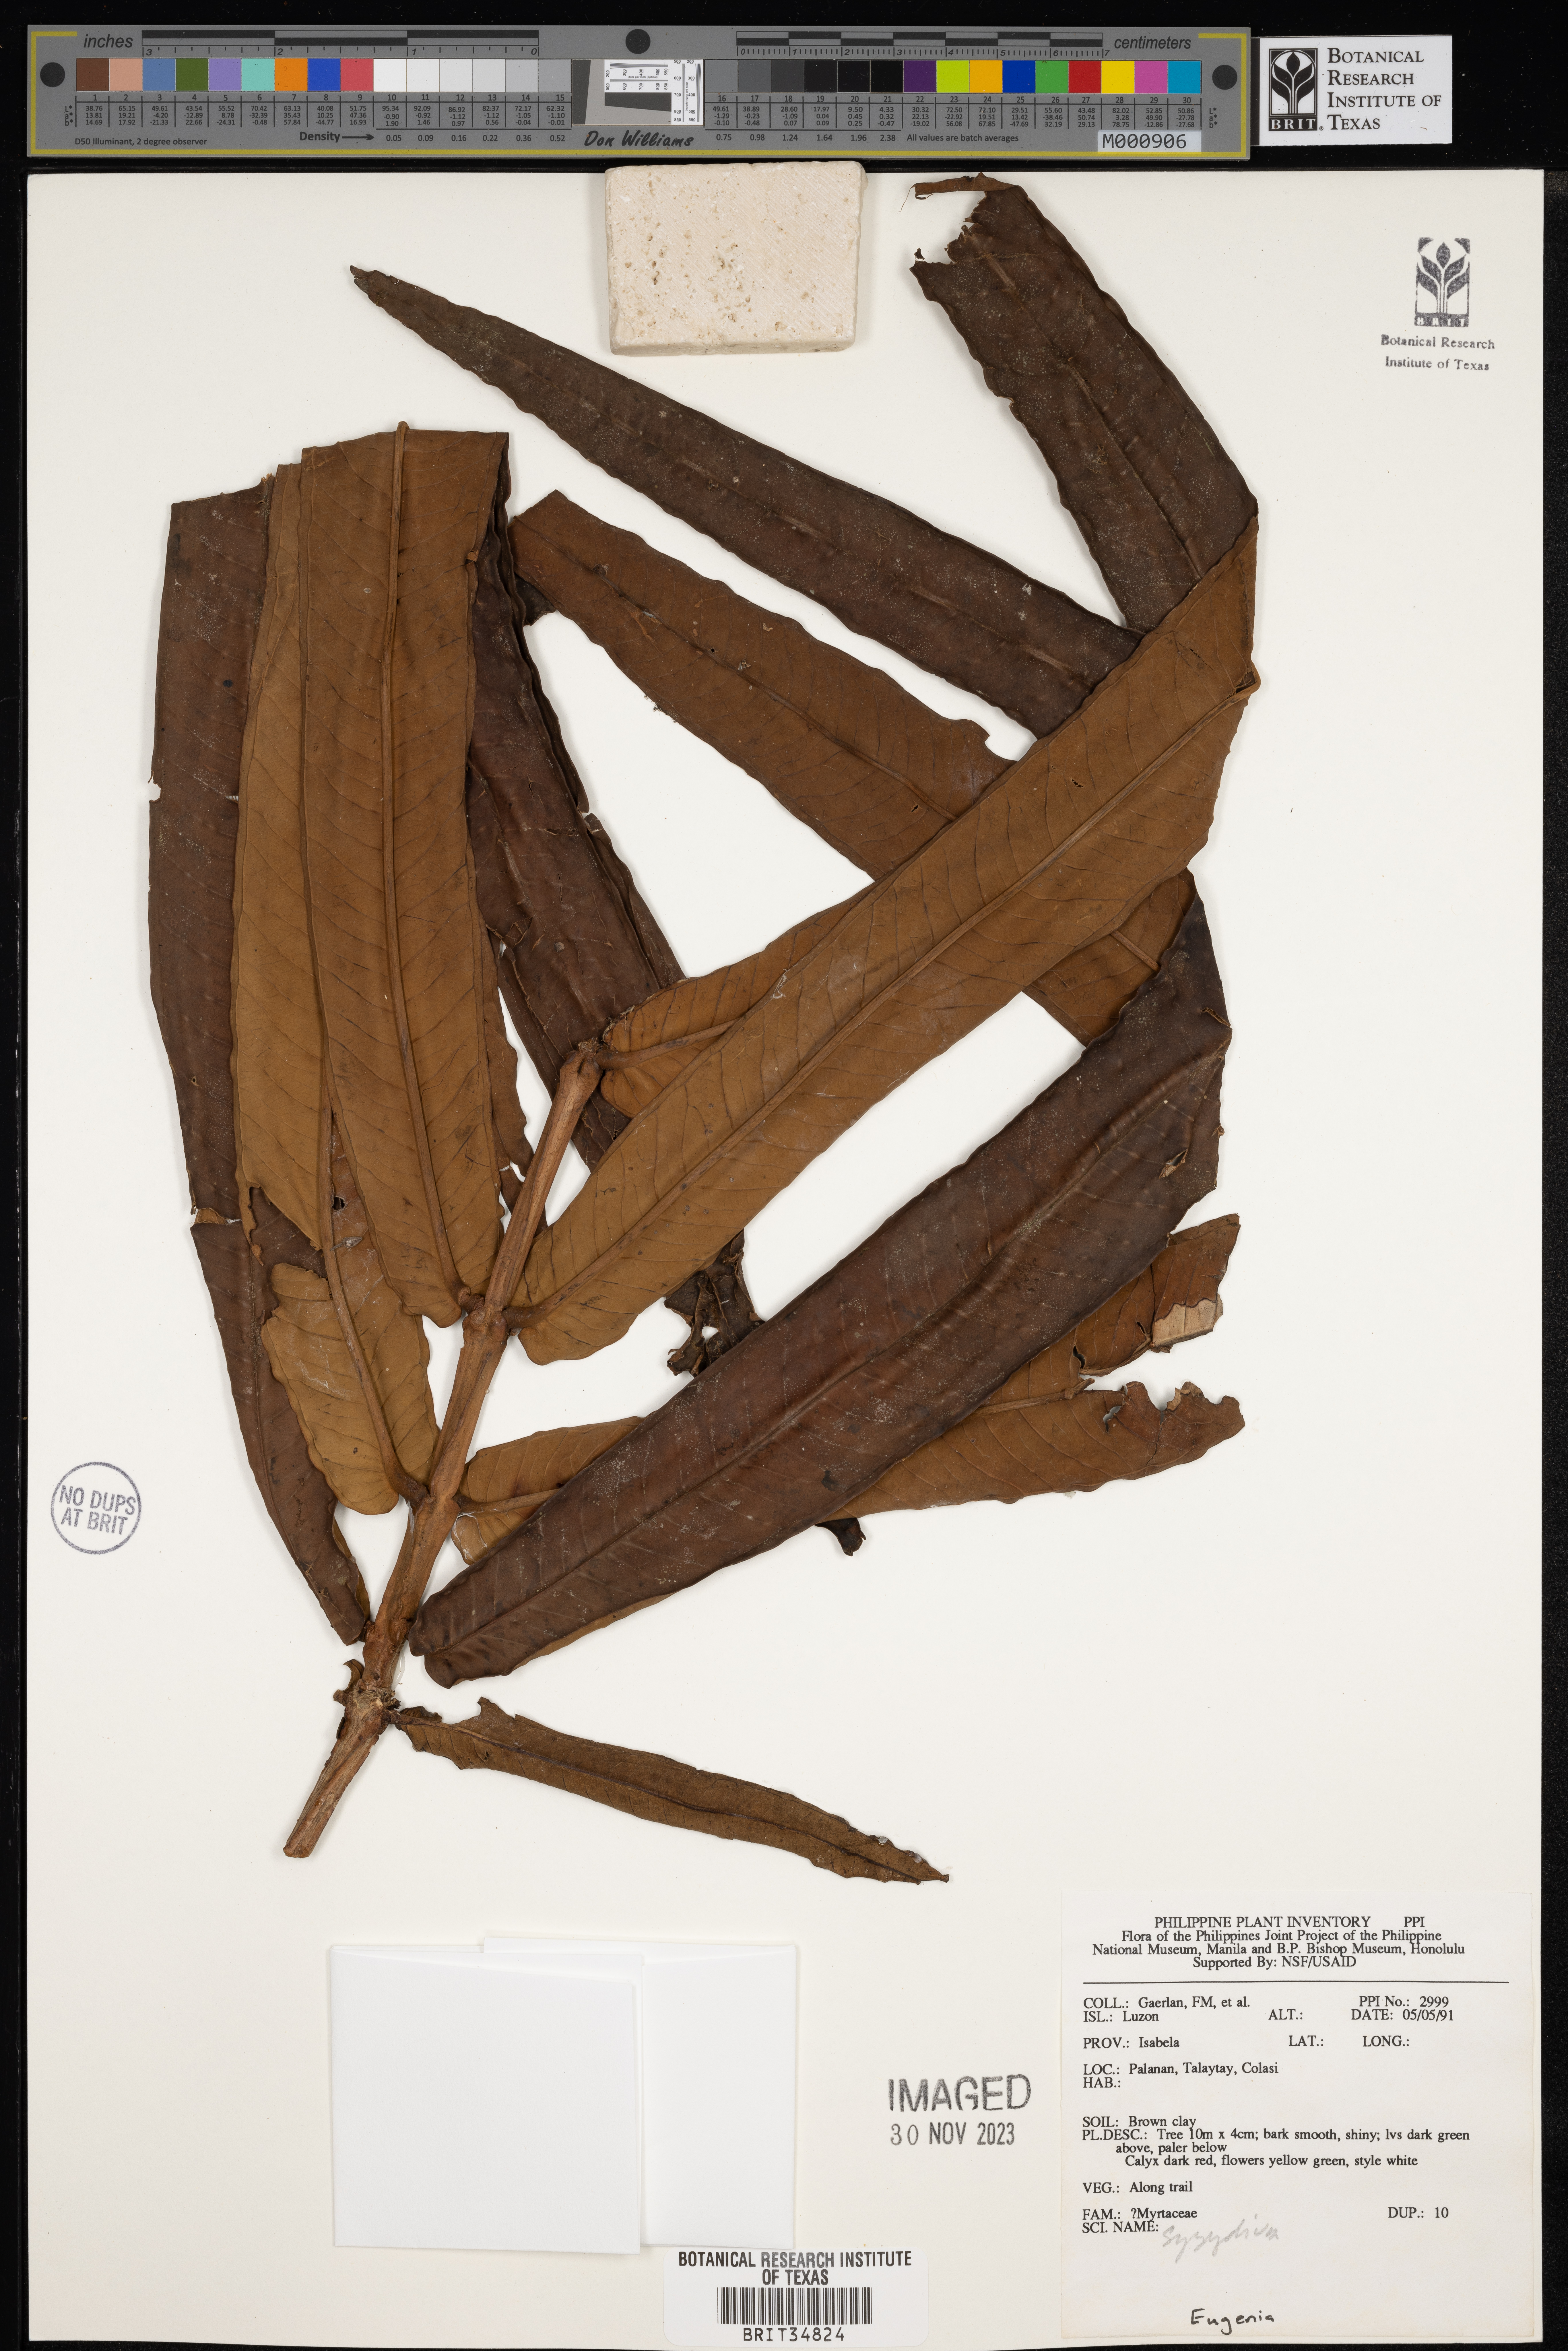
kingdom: Plantae
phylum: Tracheophyta
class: Magnoliopsida
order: Myrtales
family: Myrtaceae
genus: Syzygium
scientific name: Syzygium
